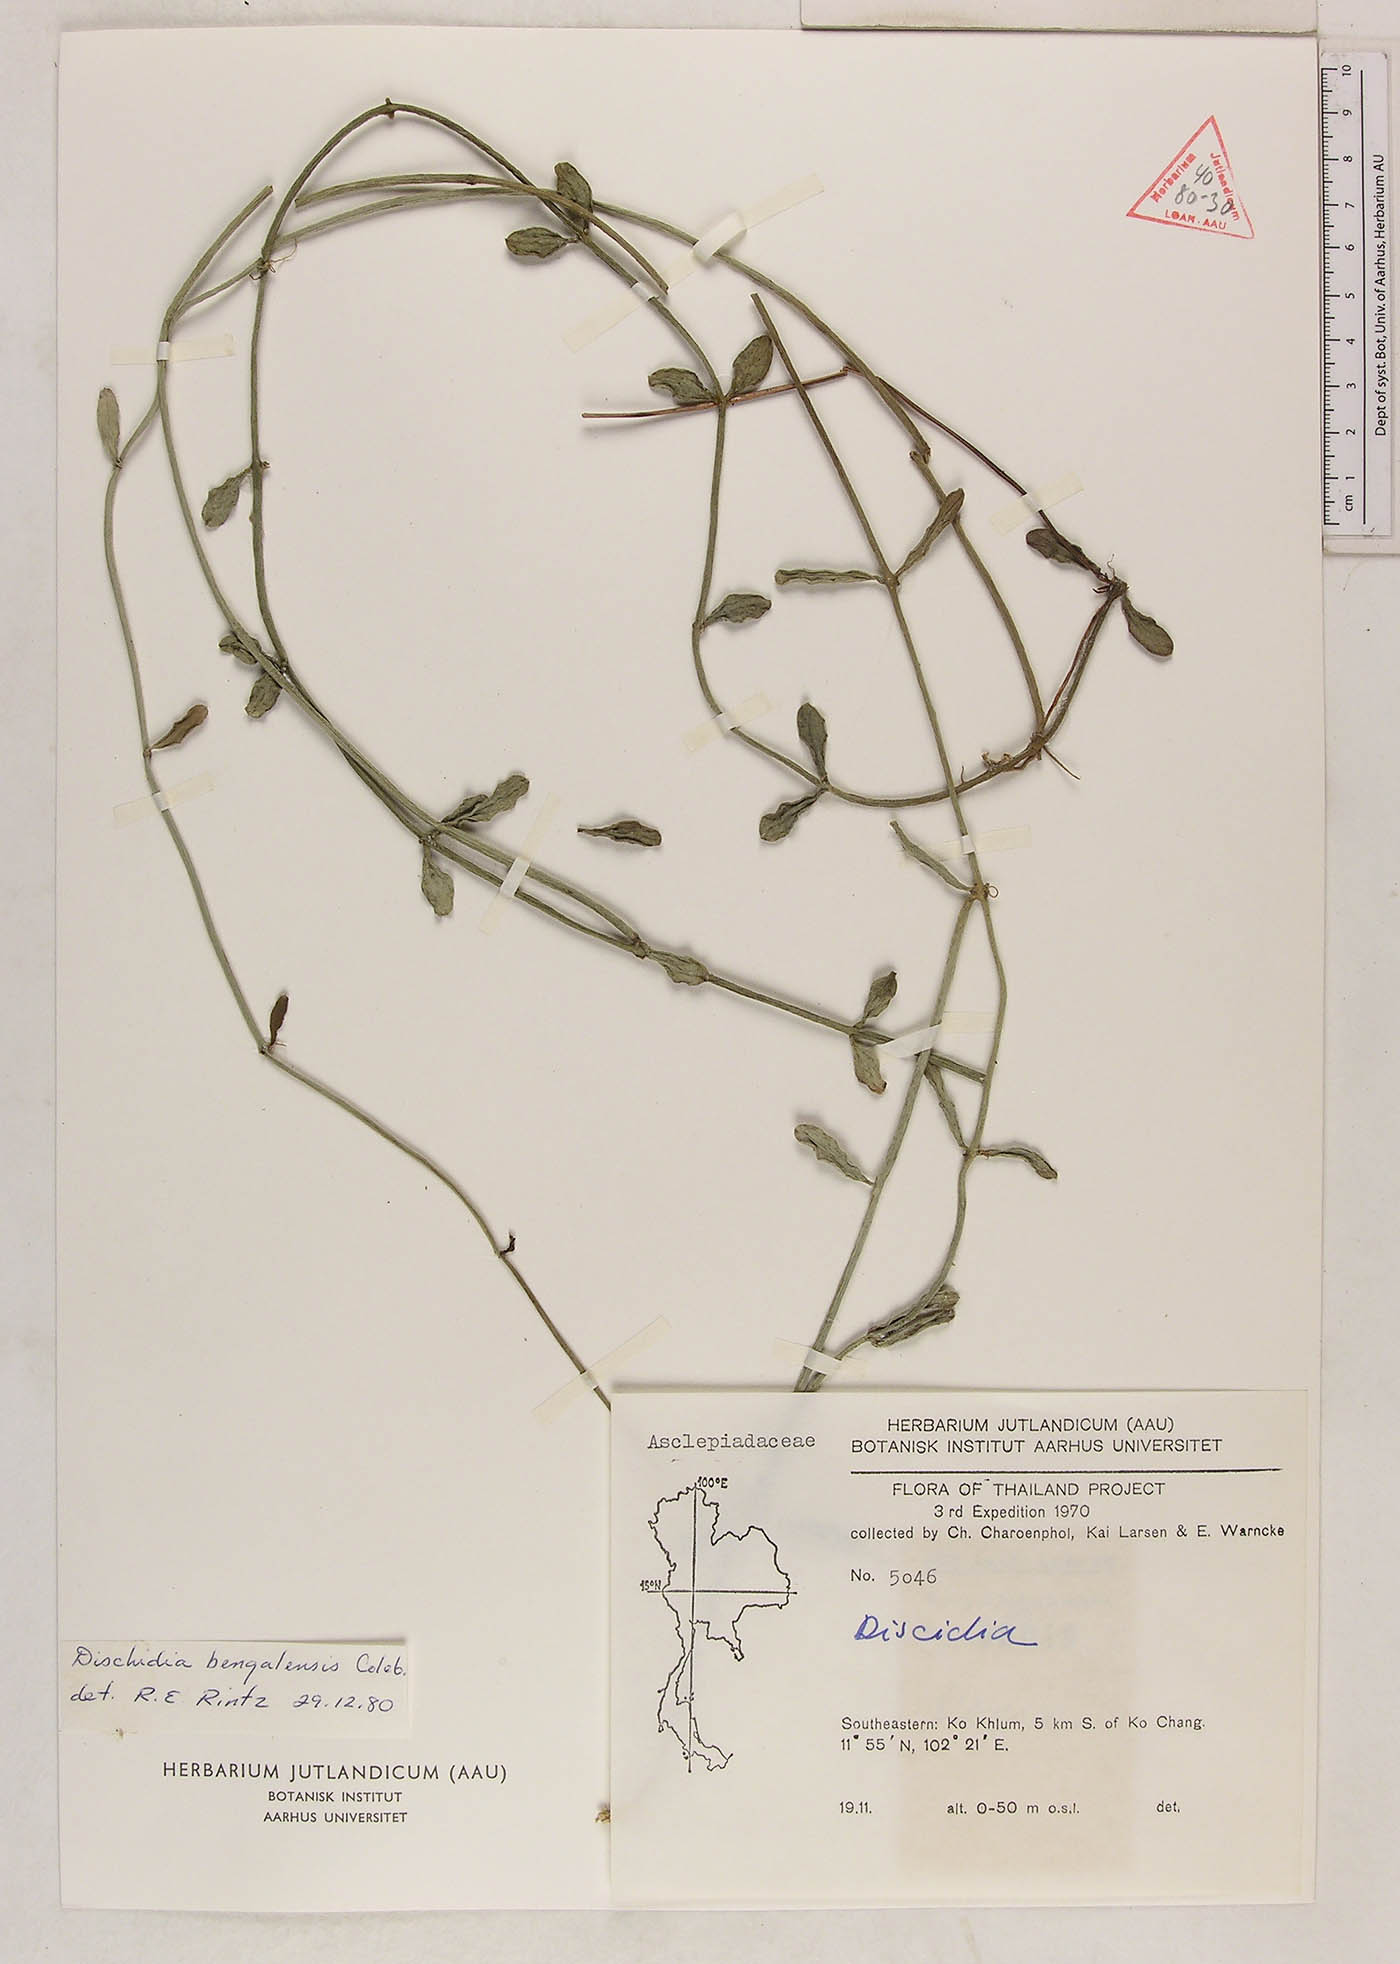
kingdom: Plantae
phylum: Tracheophyta
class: Magnoliopsida
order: Gentianales
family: Apocynaceae
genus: Dischidia
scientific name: Dischidia bengalensis
